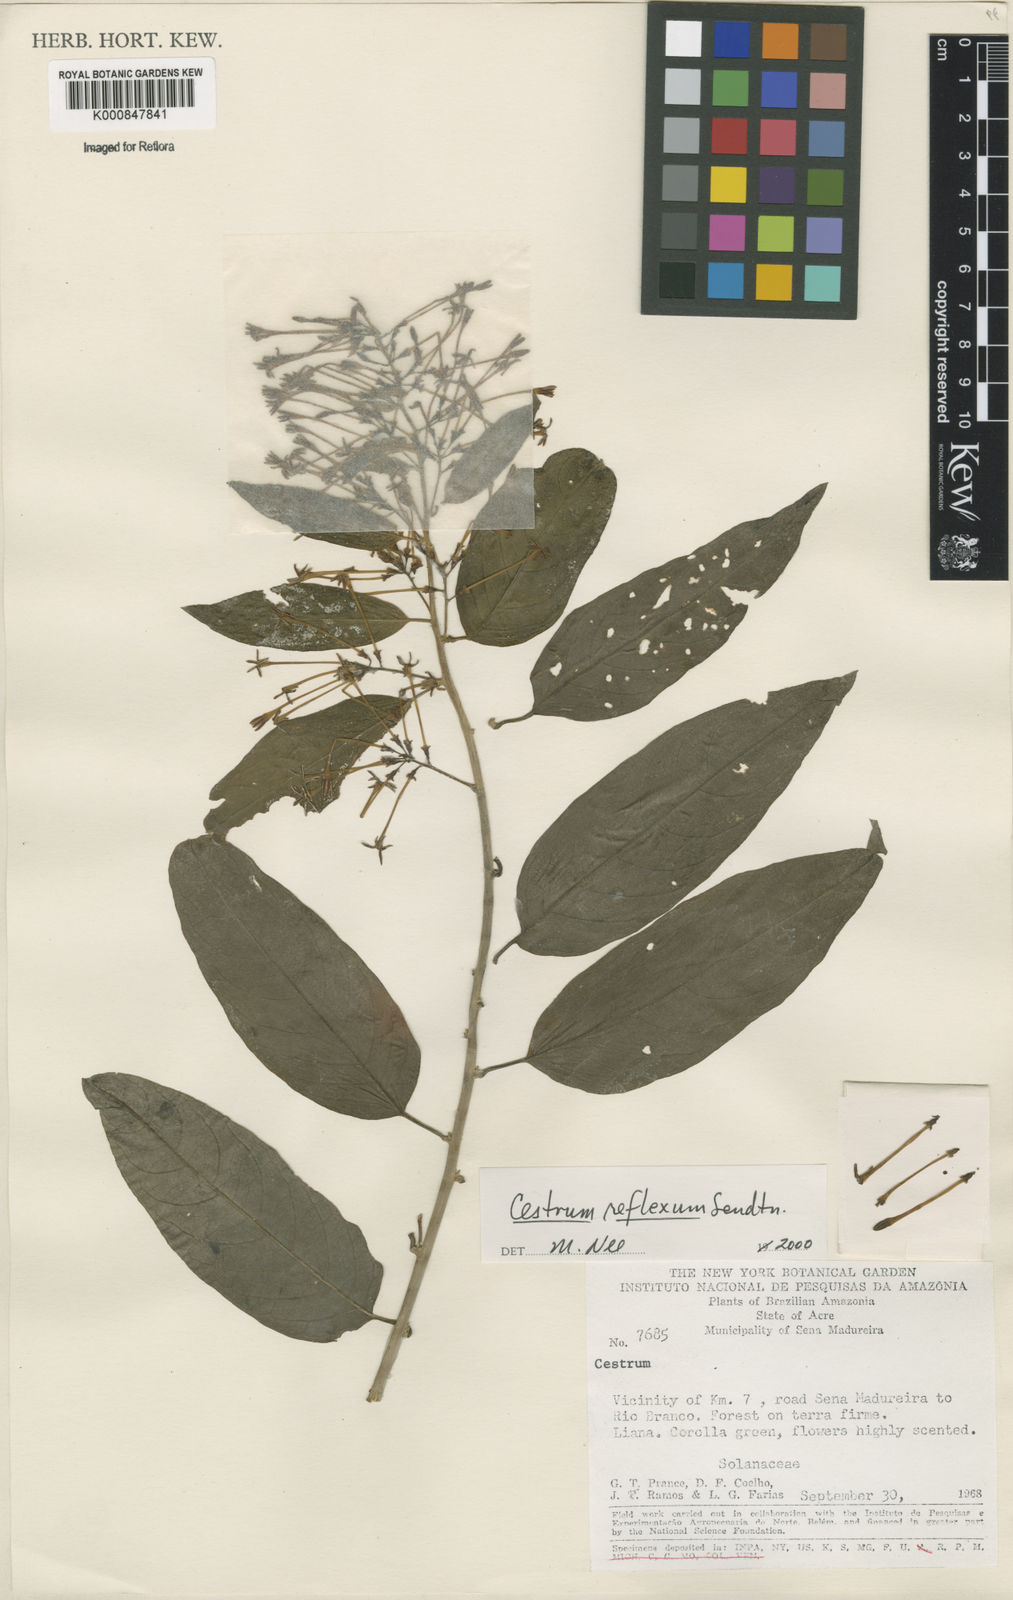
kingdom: Plantae
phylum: Tracheophyta
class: Magnoliopsida
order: Solanales
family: Solanaceae
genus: Cestrum
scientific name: Cestrum reflexum
